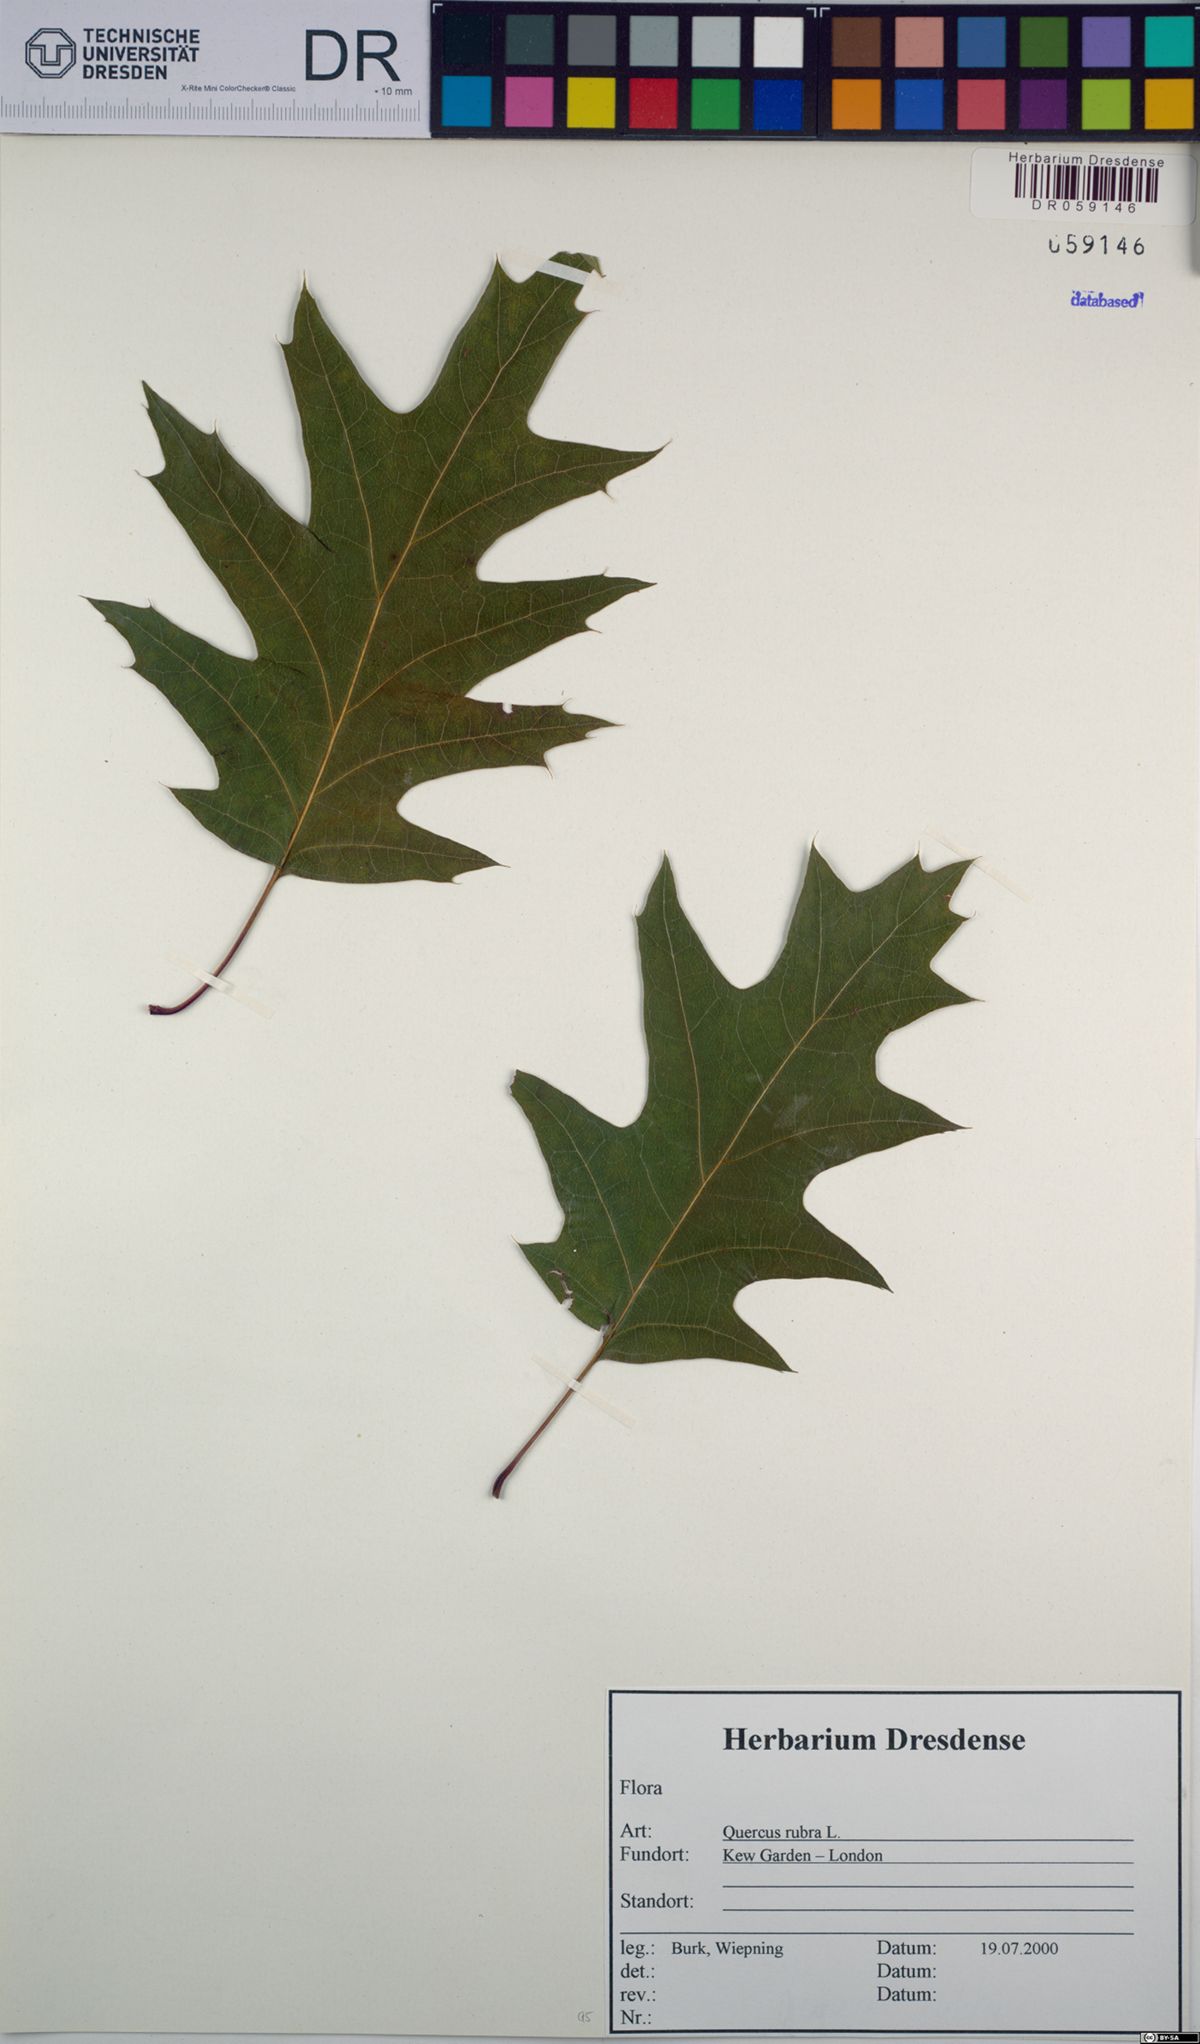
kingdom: Plantae
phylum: Tracheophyta
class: Magnoliopsida
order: Fagales
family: Fagaceae
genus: Quercus
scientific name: Quercus rubra
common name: Red oak
